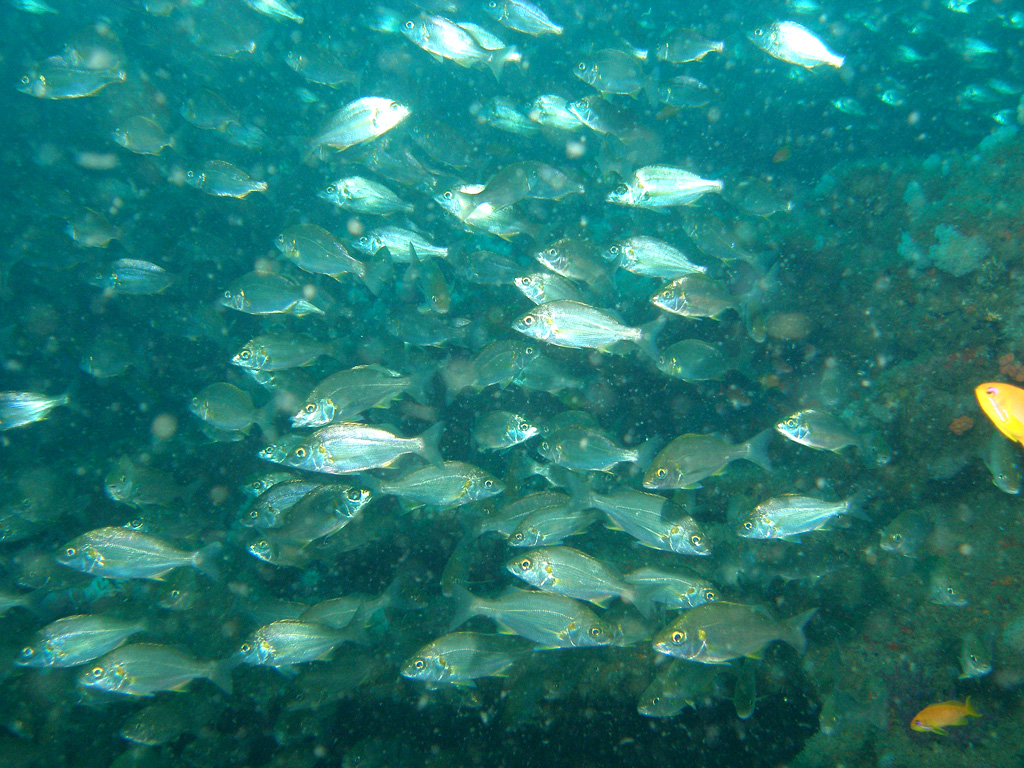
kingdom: Animalia
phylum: Chordata
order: Perciformes
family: Haemulidae
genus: Pomadasys
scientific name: Pomadasys olivaceus
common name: Olive grunt
